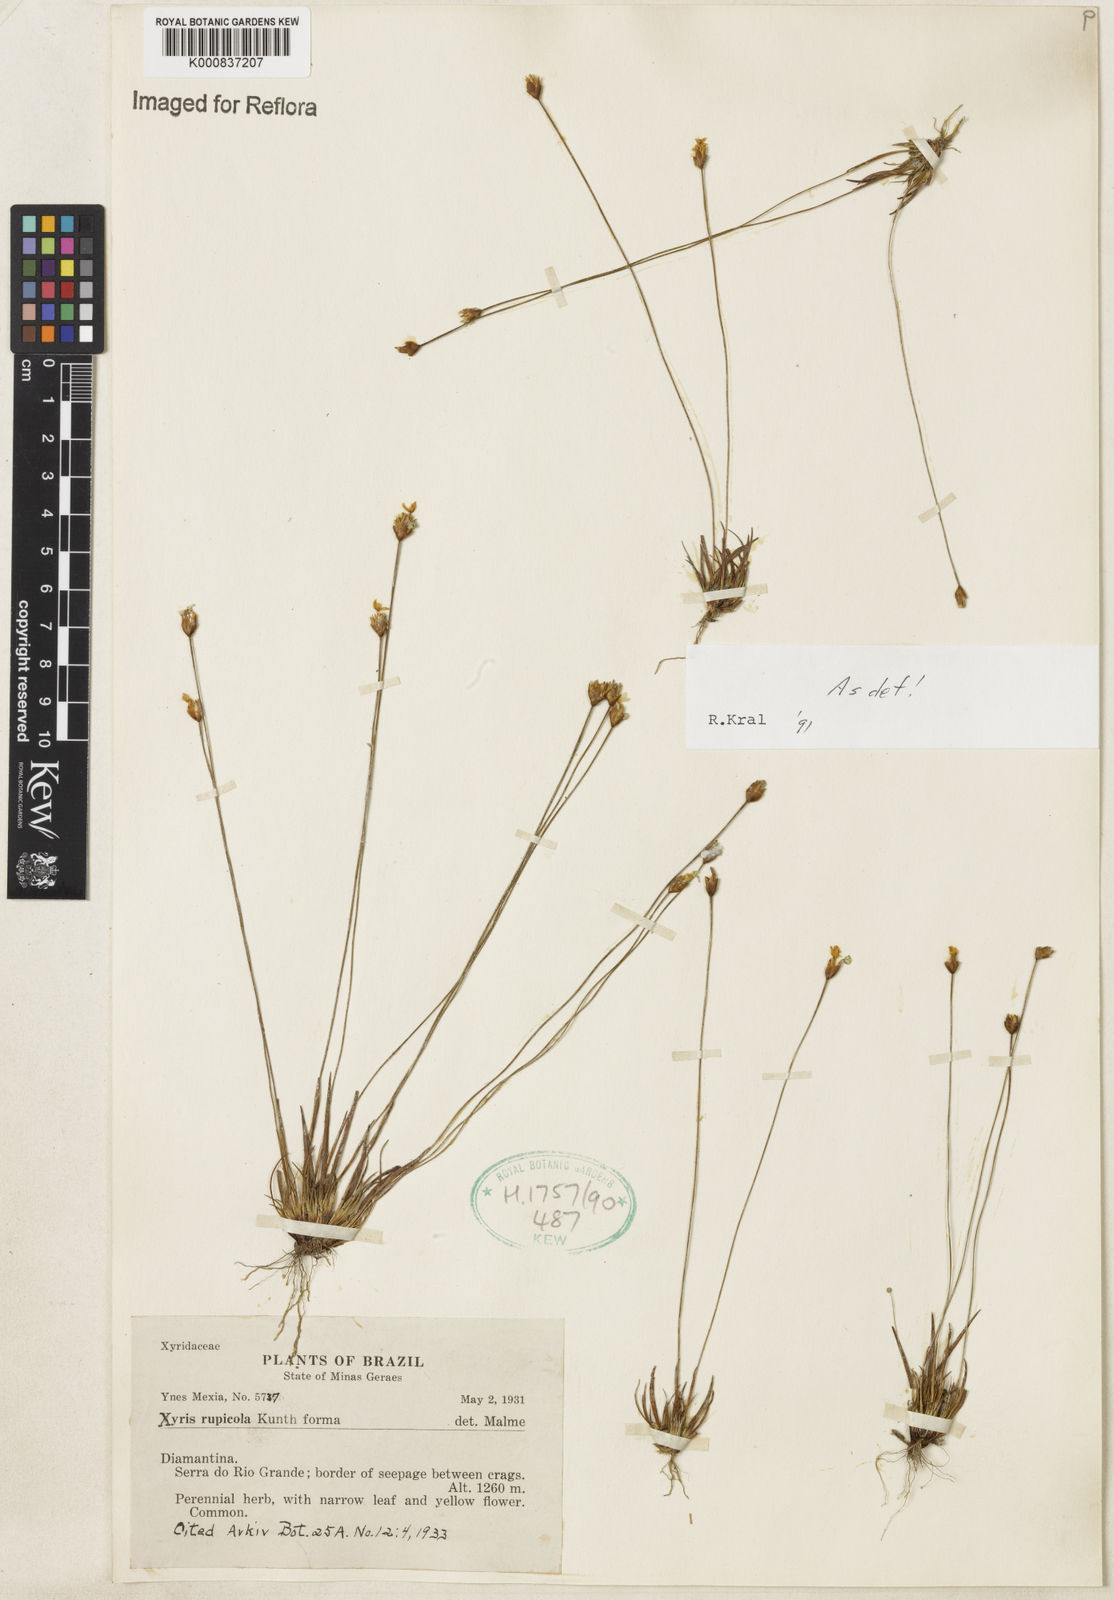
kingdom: Plantae
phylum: Tracheophyta
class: Liliopsida
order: Poales
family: Xyridaceae
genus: Xyris
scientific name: Xyris rupicola
